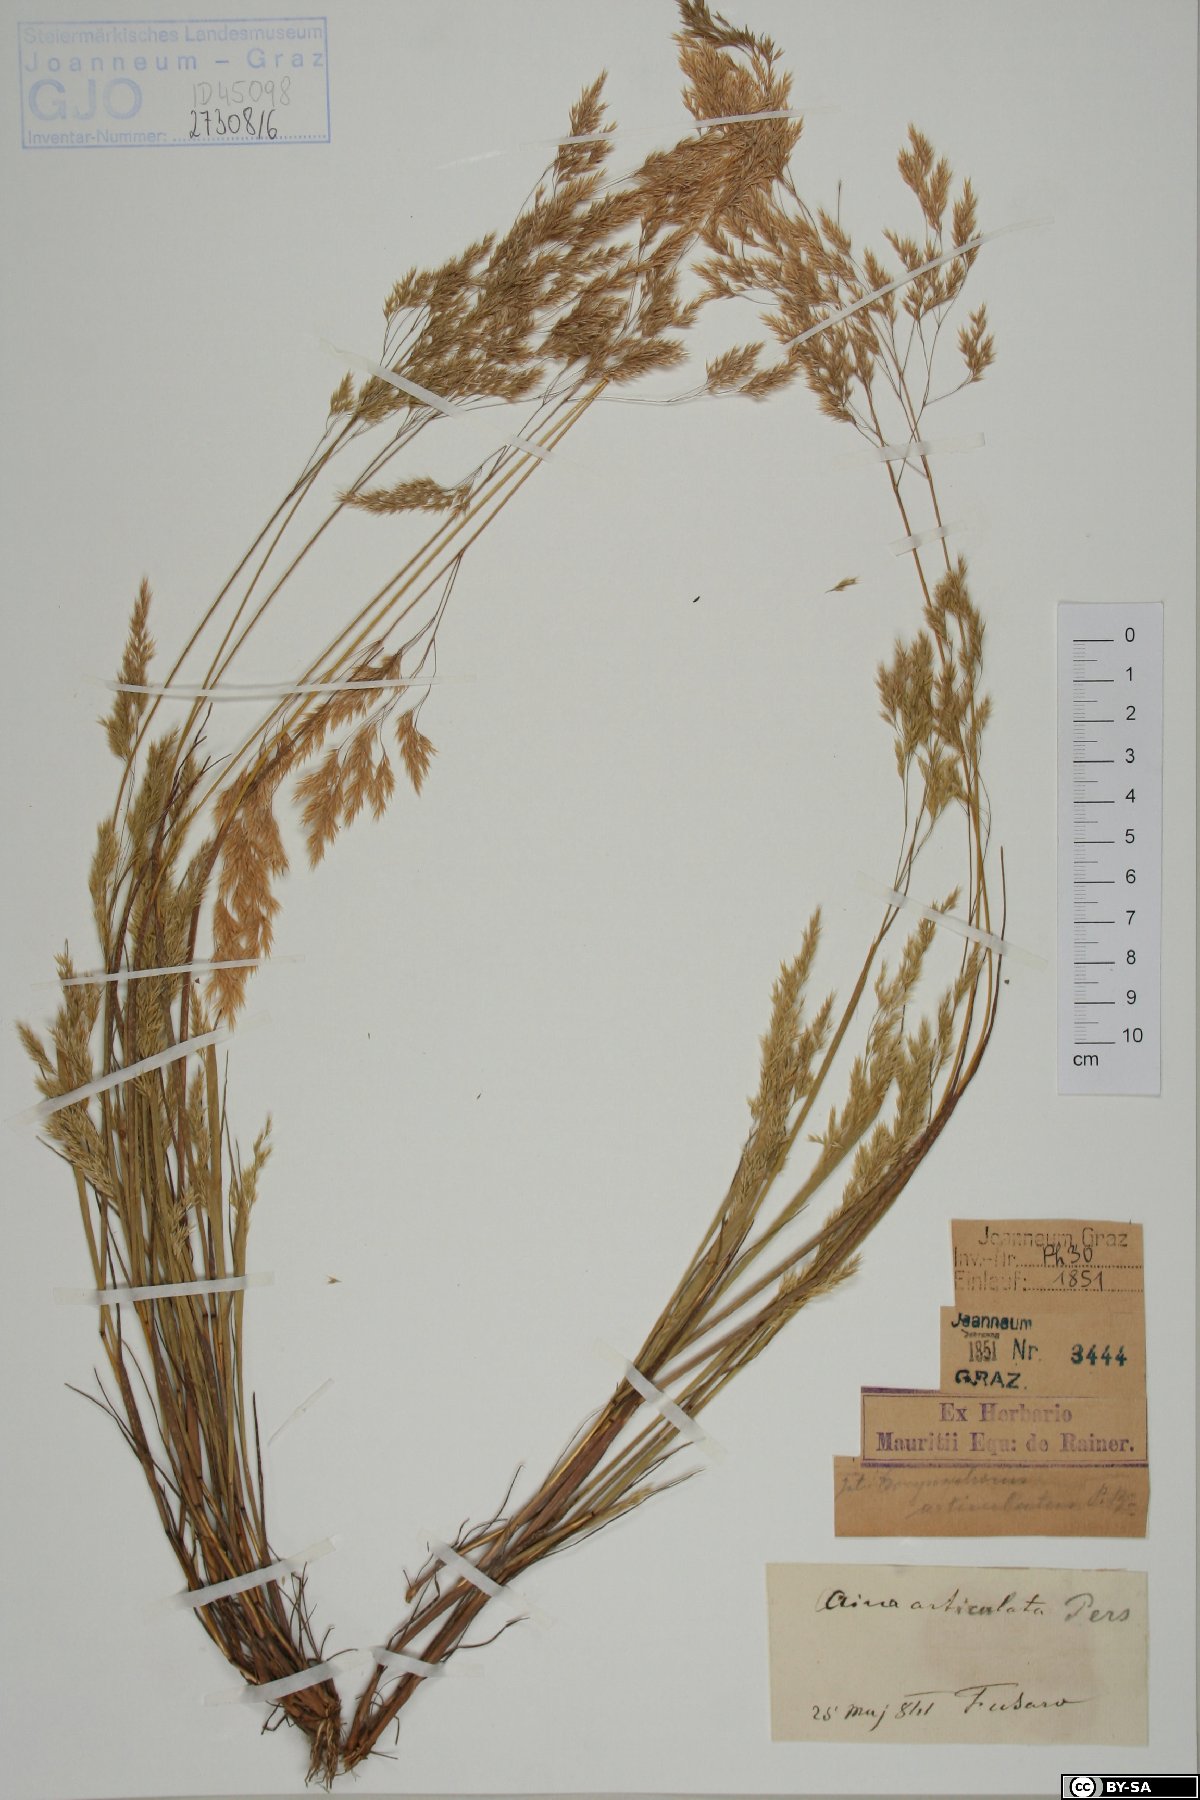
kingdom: Plantae
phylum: Tracheophyta
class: Liliopsida
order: Poales
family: Poaceae
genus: Corynephorus
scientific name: Corynephorus articulatus
